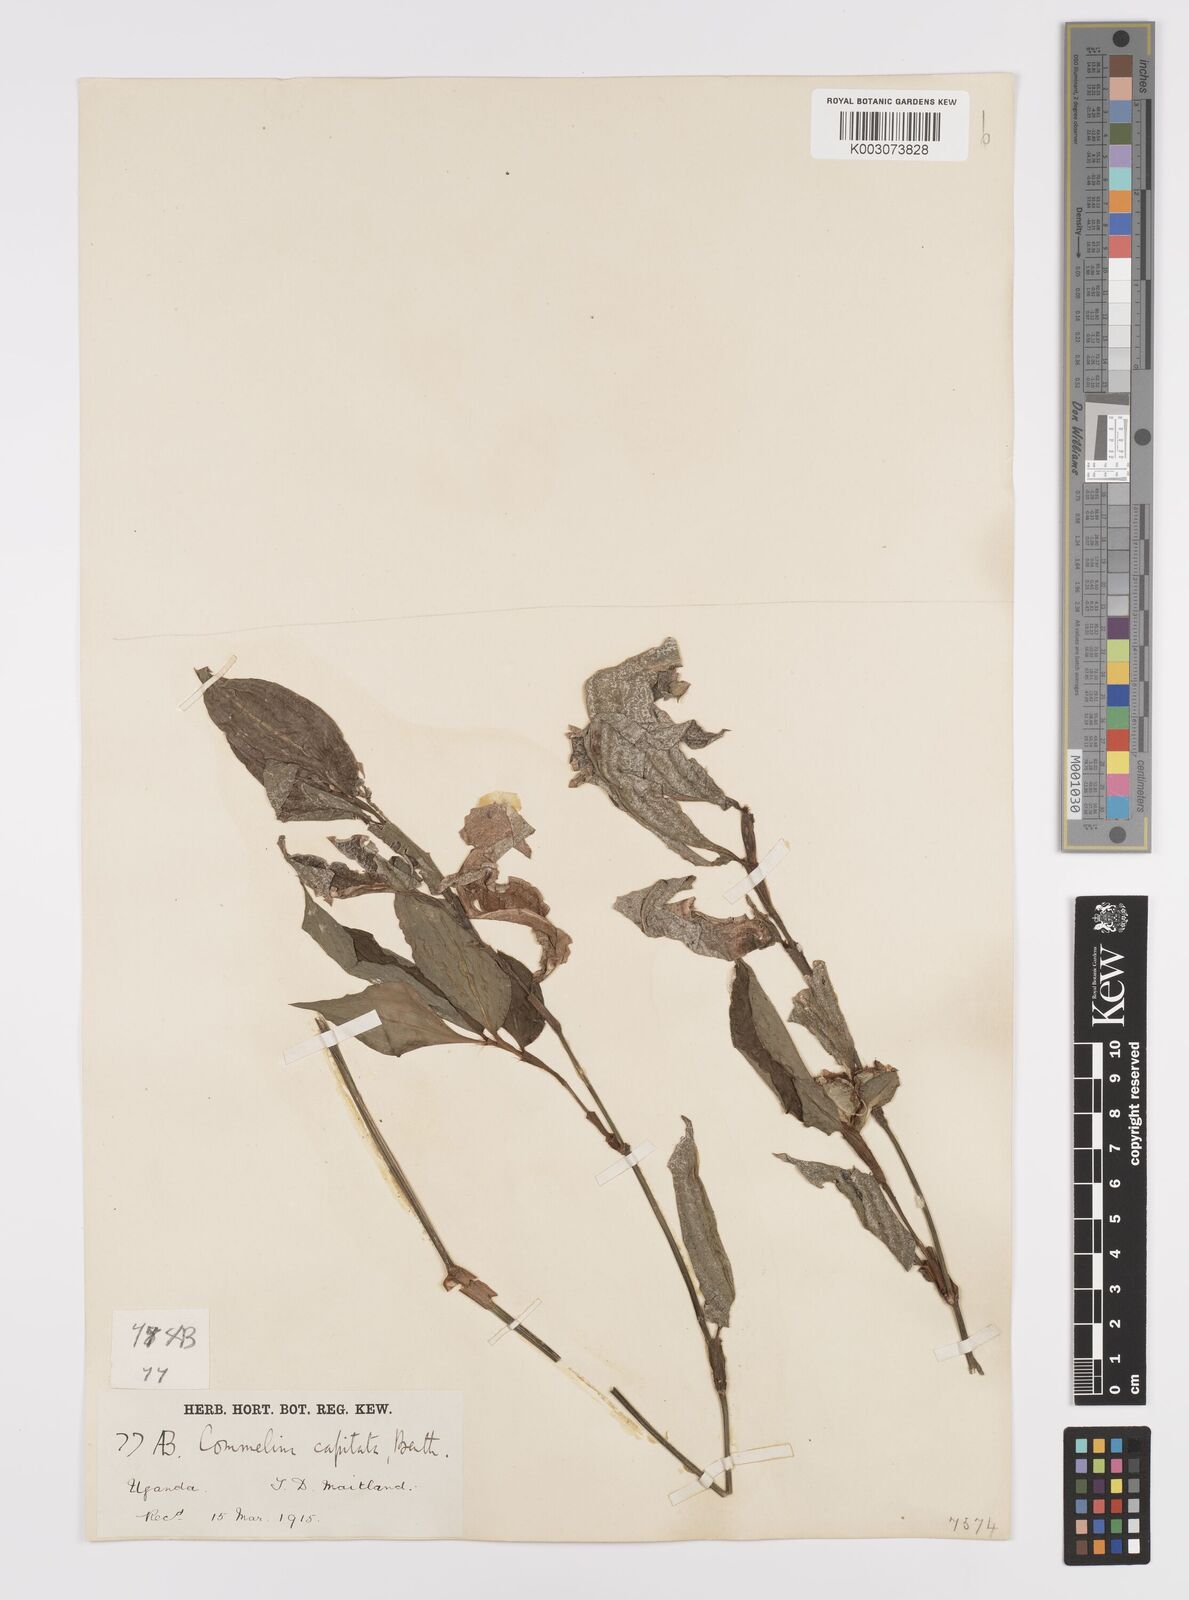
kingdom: Plantae
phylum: Tracheophyta
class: Liliopsida
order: Commelinales
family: Commelinaceae
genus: Commelina
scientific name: Commelina capitata
